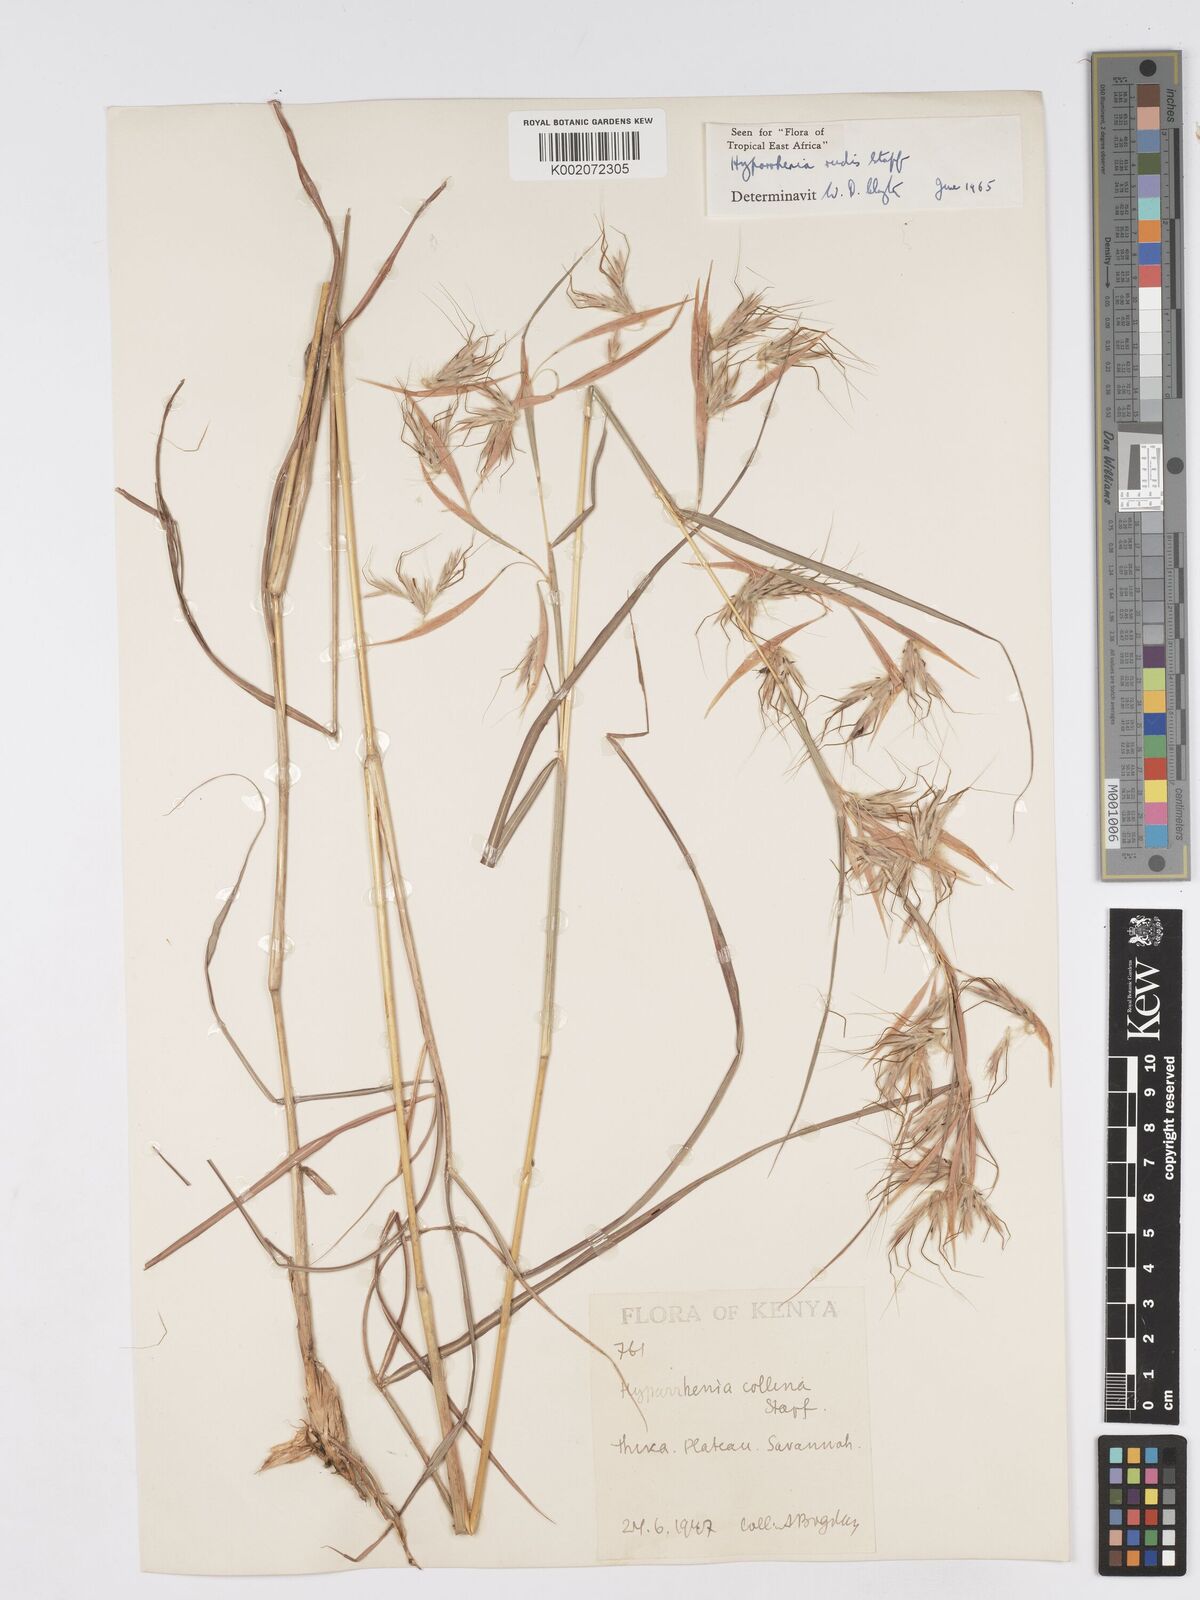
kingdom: Plantae
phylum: Tracheophyta
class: Liliopsida
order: Poales
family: Poaceae
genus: Hyparrhenia
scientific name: Hyparrhenia rudis
